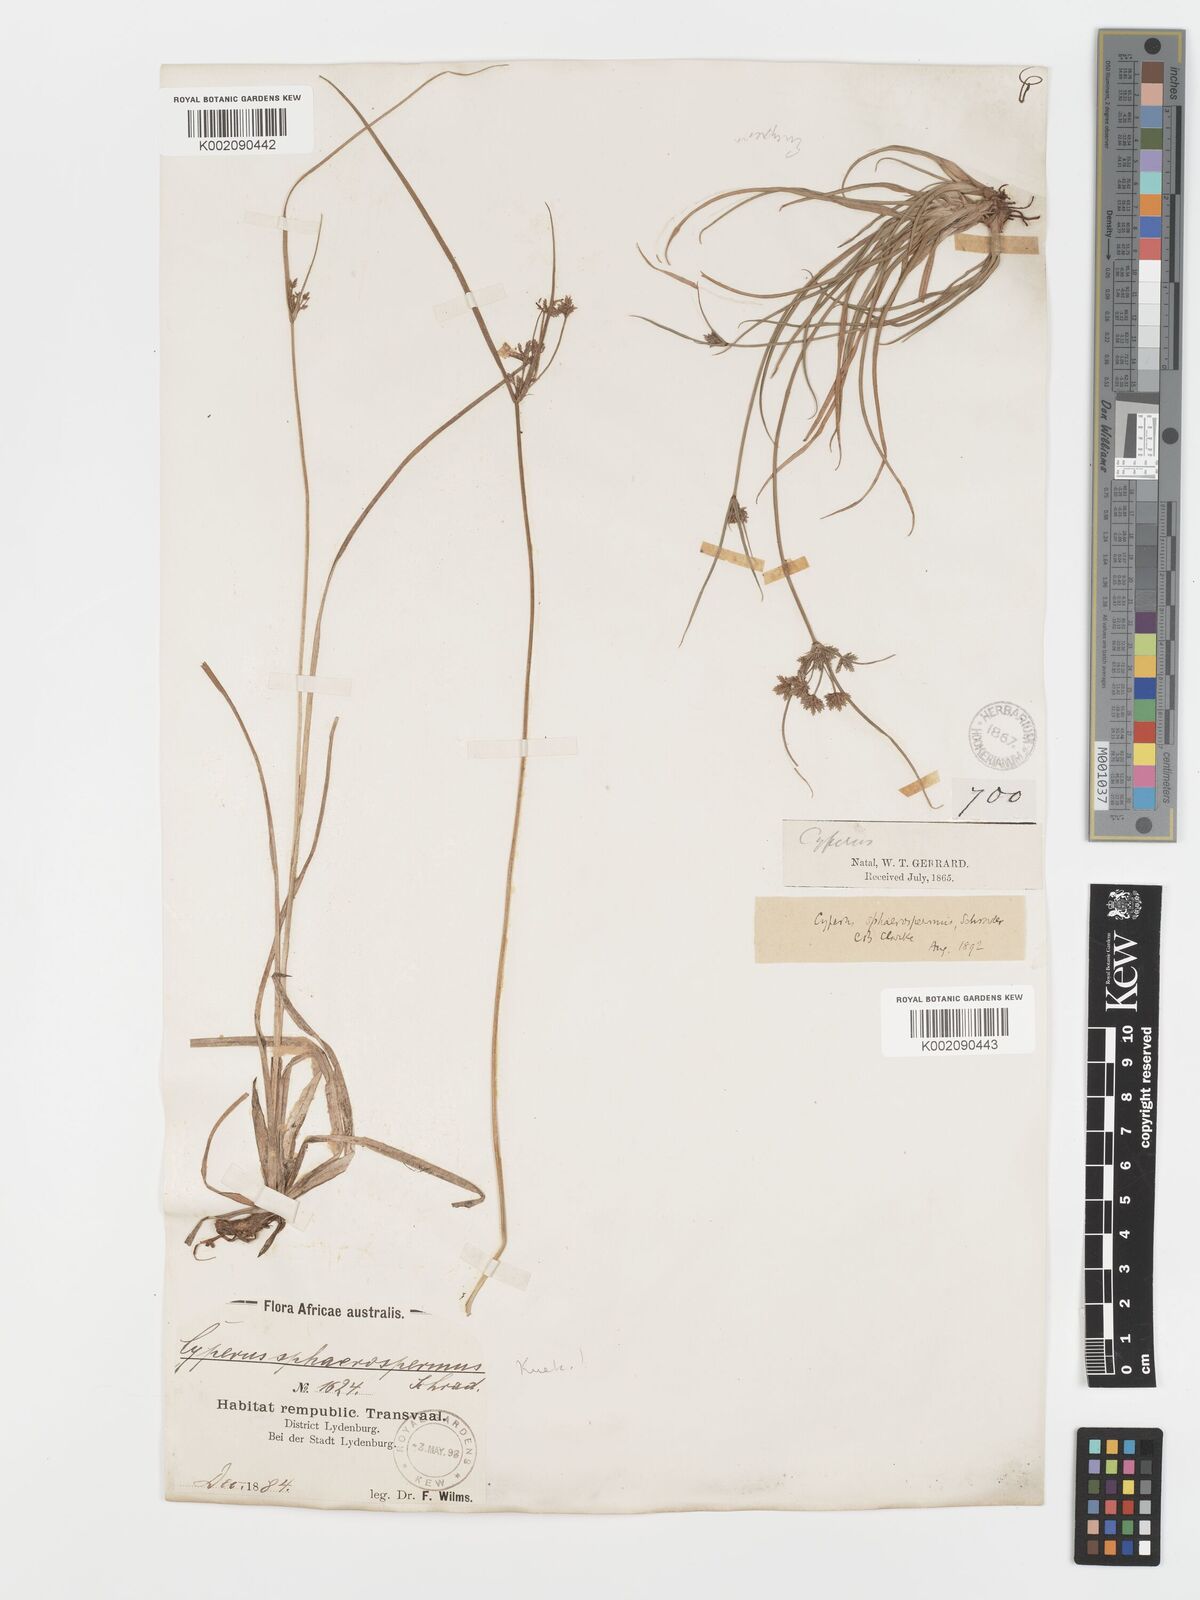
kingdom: Plantae
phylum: Tracheophyta
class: Liliopsida
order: Poales
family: Cyperaceae
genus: Cyperus
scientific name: Cyperus sphaerospermus
